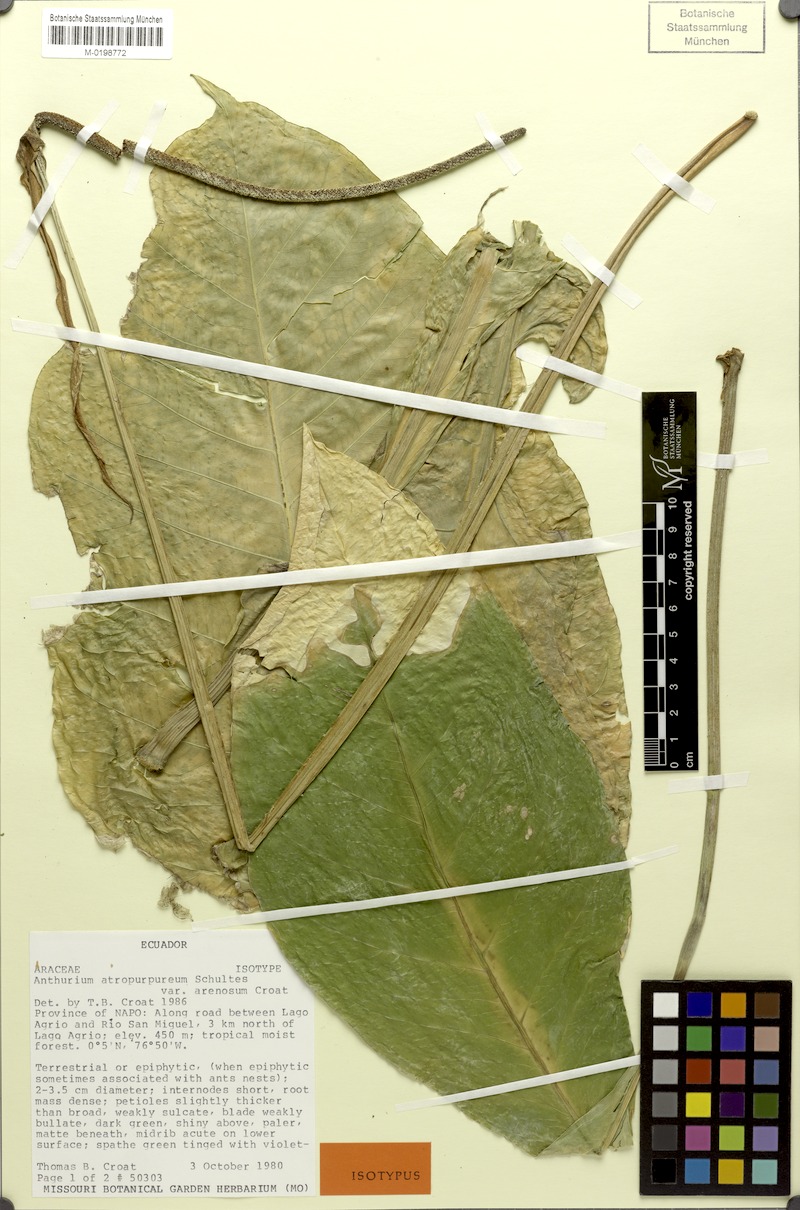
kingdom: Plantae
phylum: Tracheophyta
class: Liliopsida
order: Alismatales
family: Araceae
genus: Anthurium
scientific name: Anthurium atropurpureum
